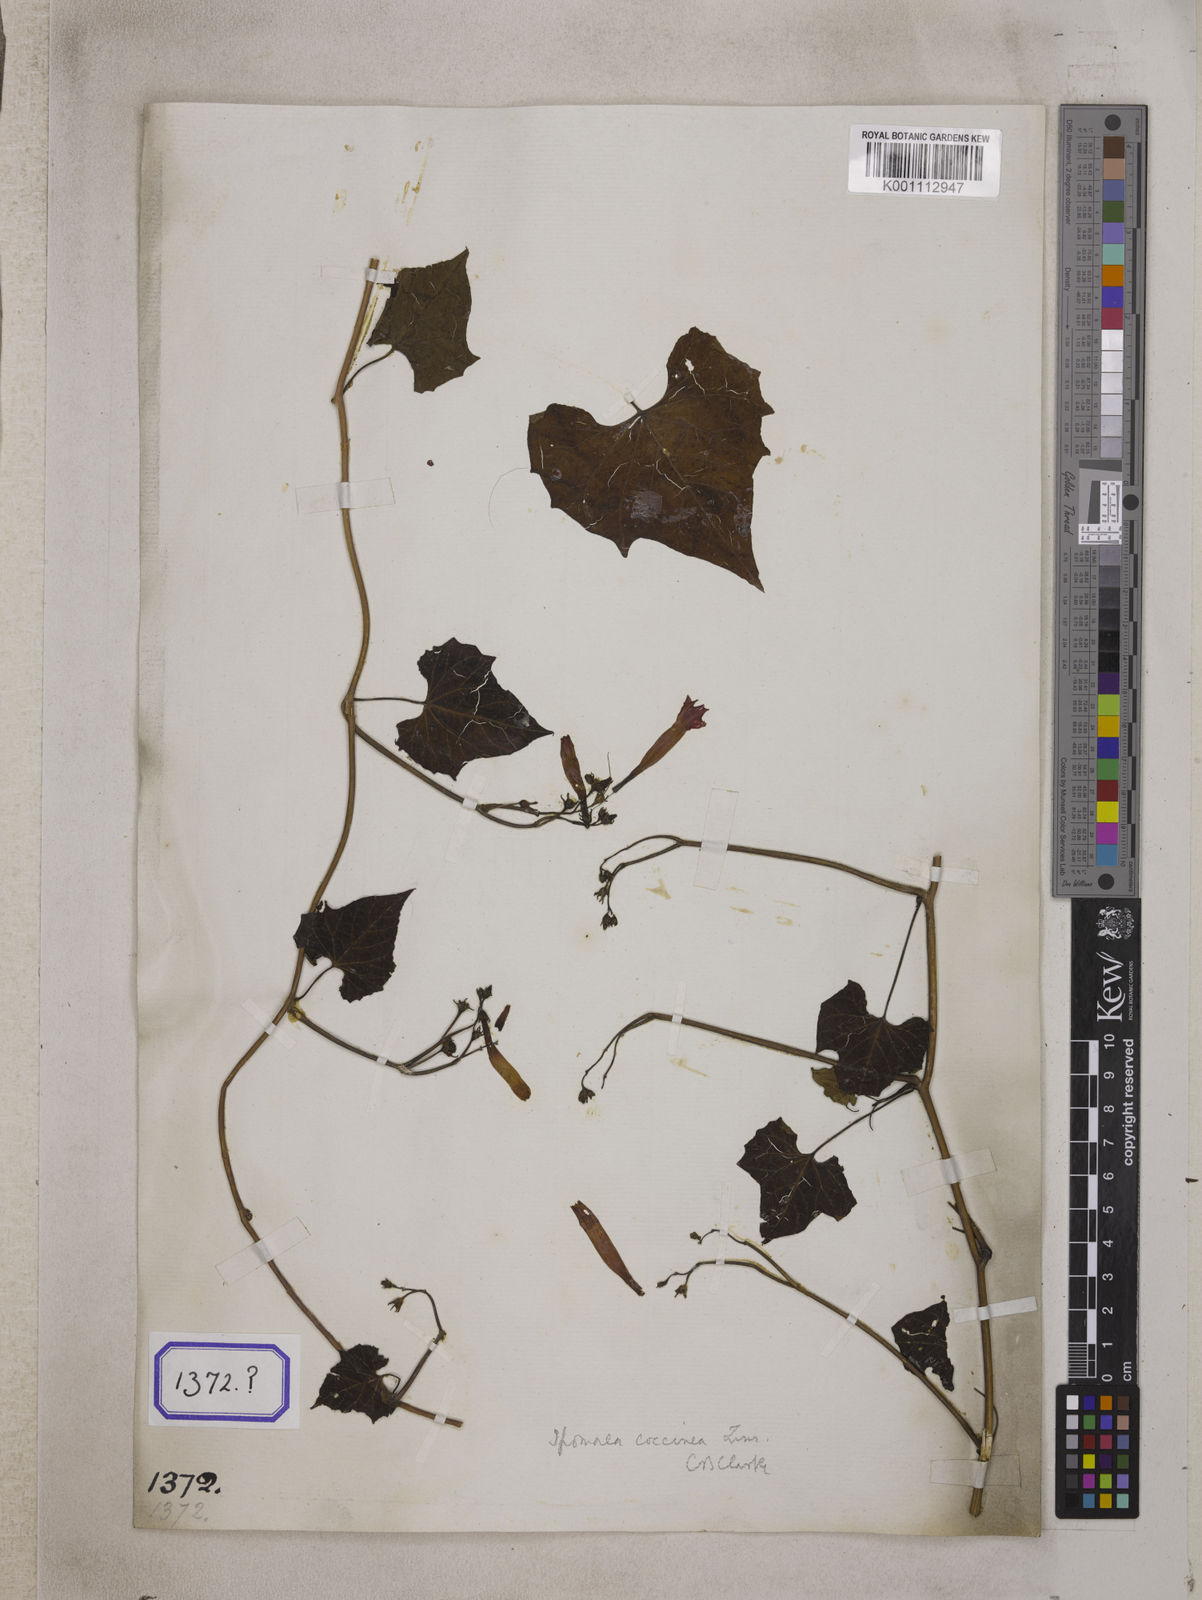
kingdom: Plantae
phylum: Tracheophyta
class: Magnoliopsida
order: Solanales
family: Convolvulaceae
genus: Convolvulus
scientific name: Convolvulus
